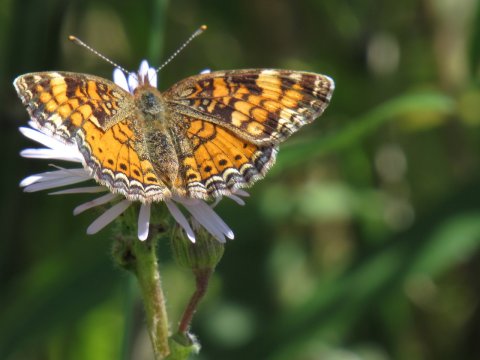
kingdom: Animalia
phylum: Arthropoda
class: Insecta
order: Lepidoptera
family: Nymphalidae
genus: Phyciodes
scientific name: Phyciodes tharos
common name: Pearl Crescent
